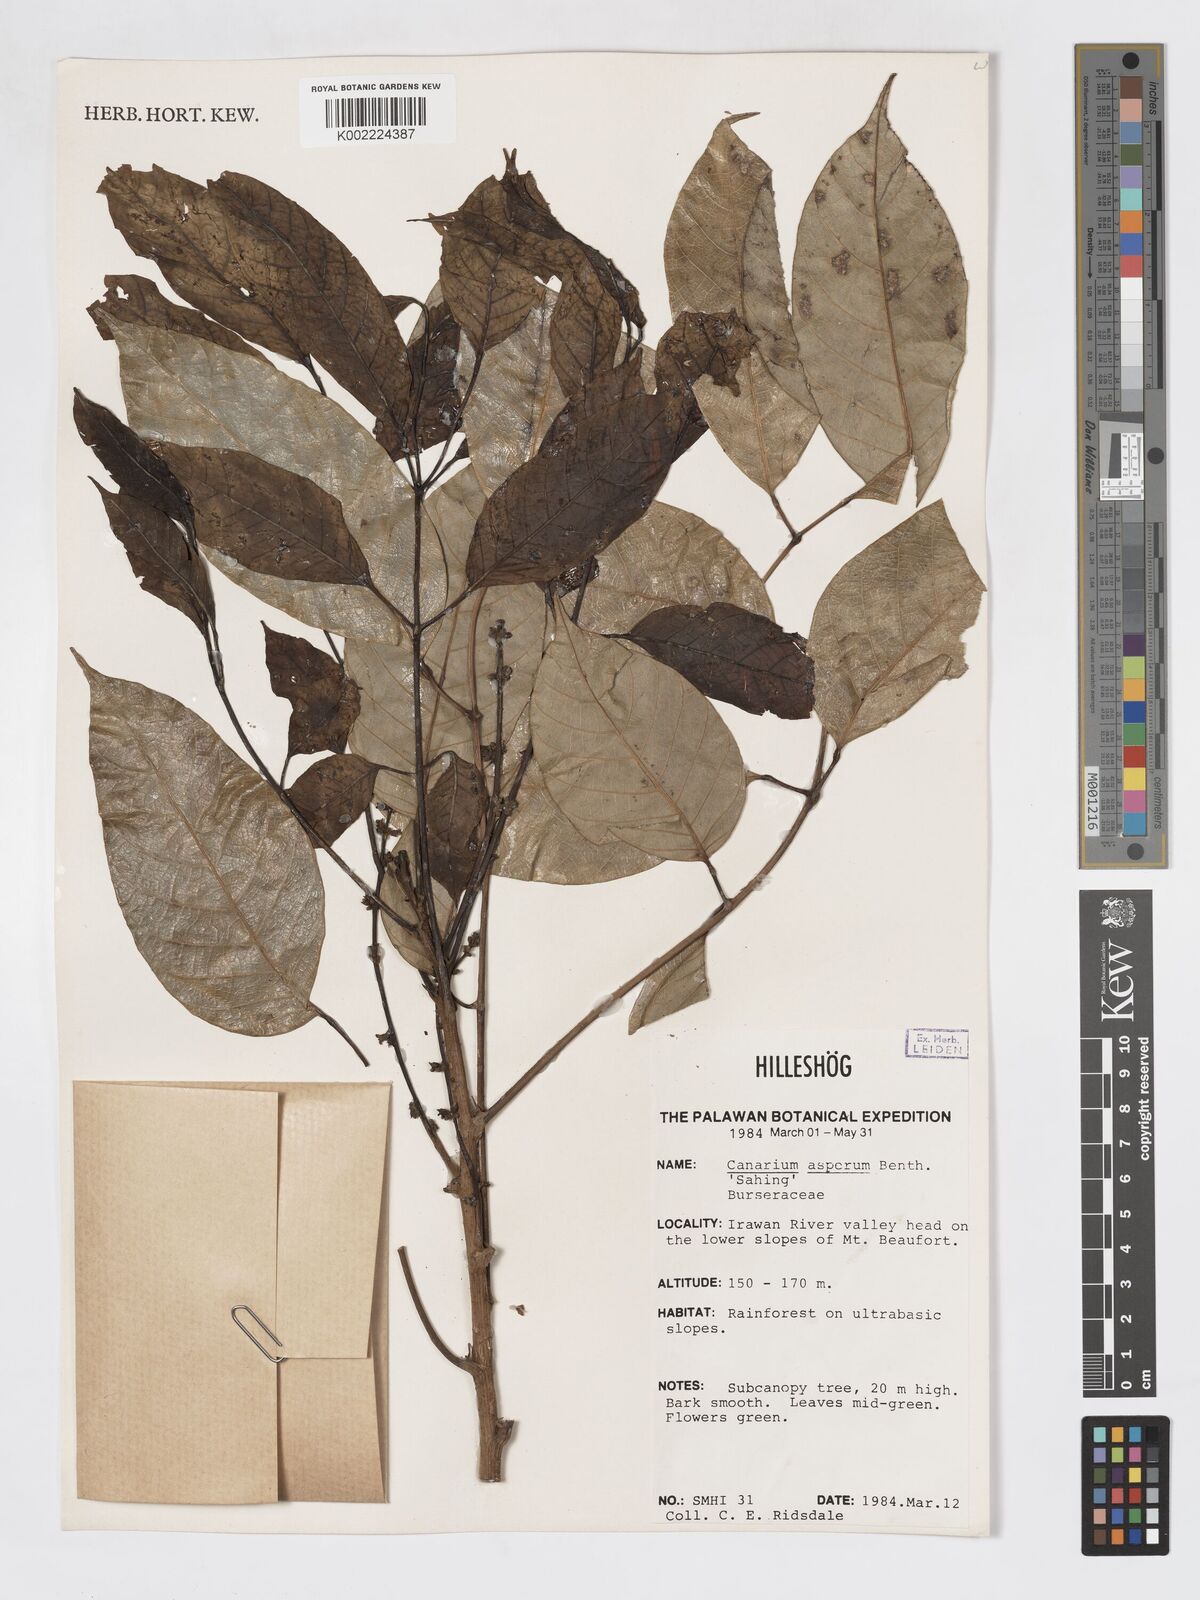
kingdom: Plantae
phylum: Tracheophyta
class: Magnoliopsida
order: Sapindales
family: Burseraceae
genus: Canarium
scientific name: Canarium asperum
